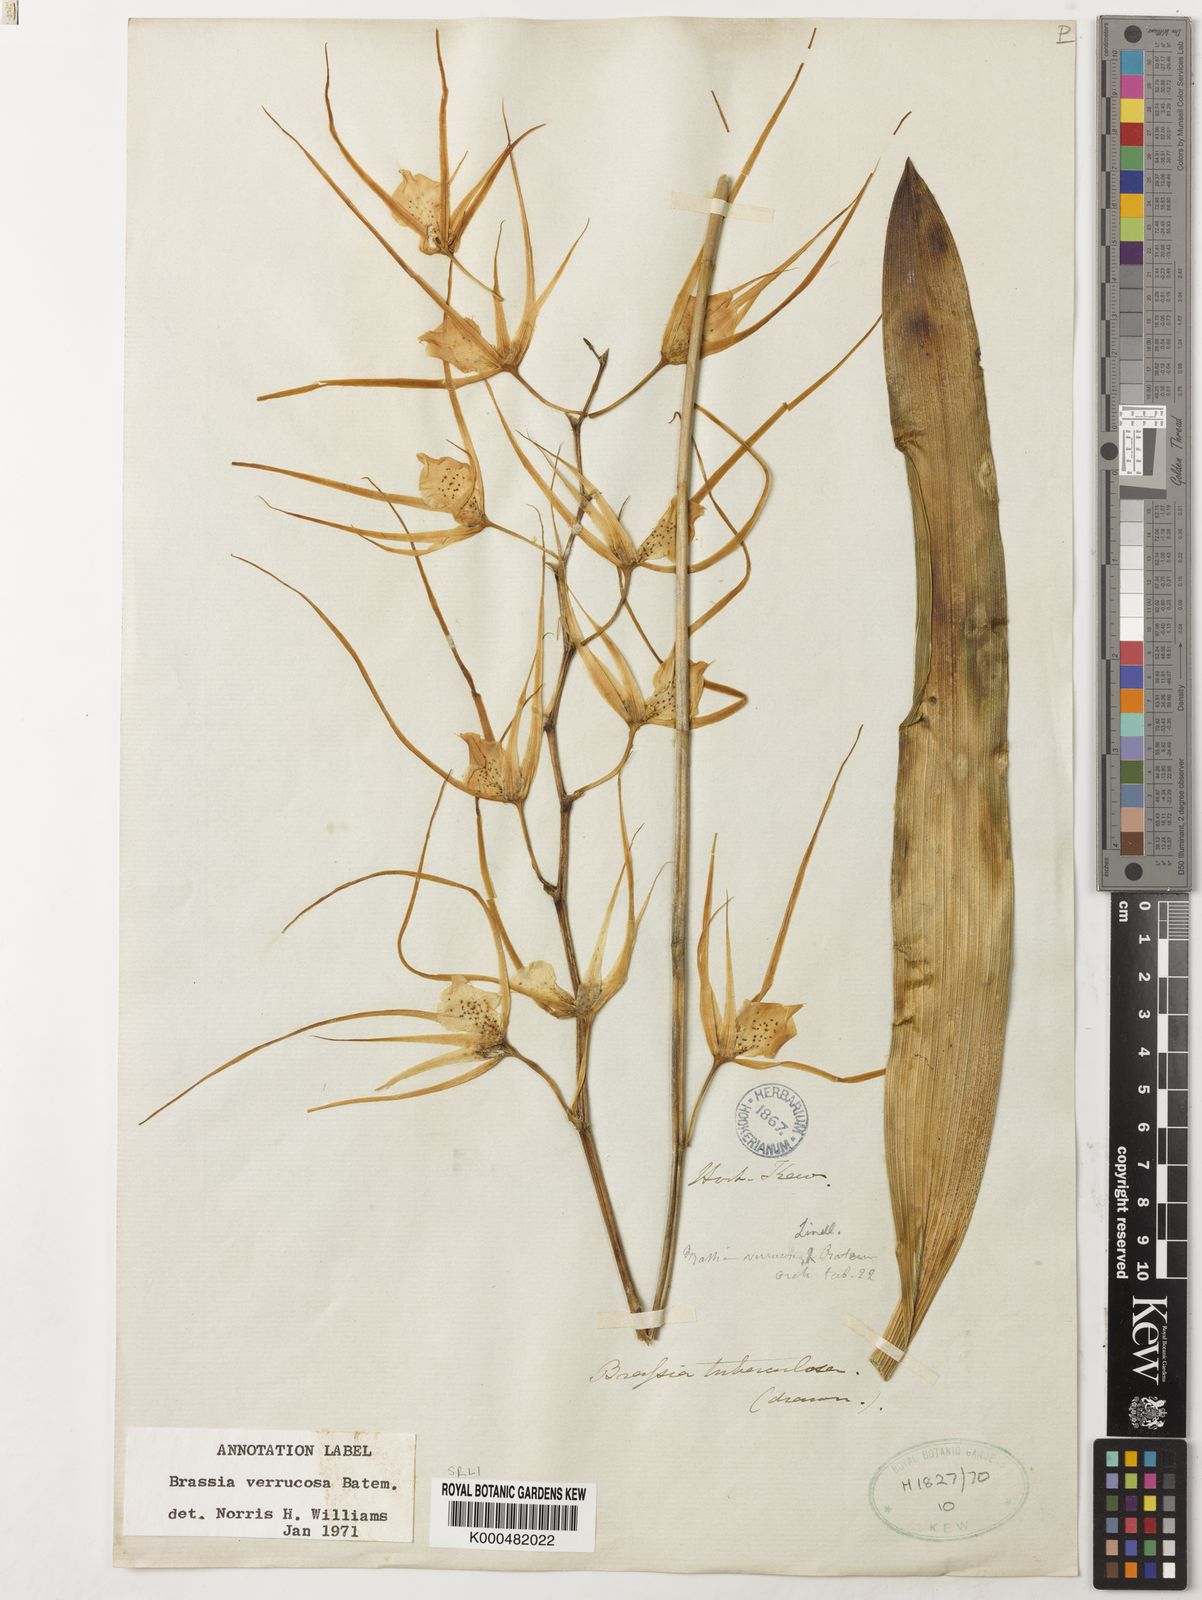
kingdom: Plantae
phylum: Tracheophyta
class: Liliopsida
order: Asparagales
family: Orchidaceae
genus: Brassia
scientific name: Brassia verrucosa
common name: Warty brassia
